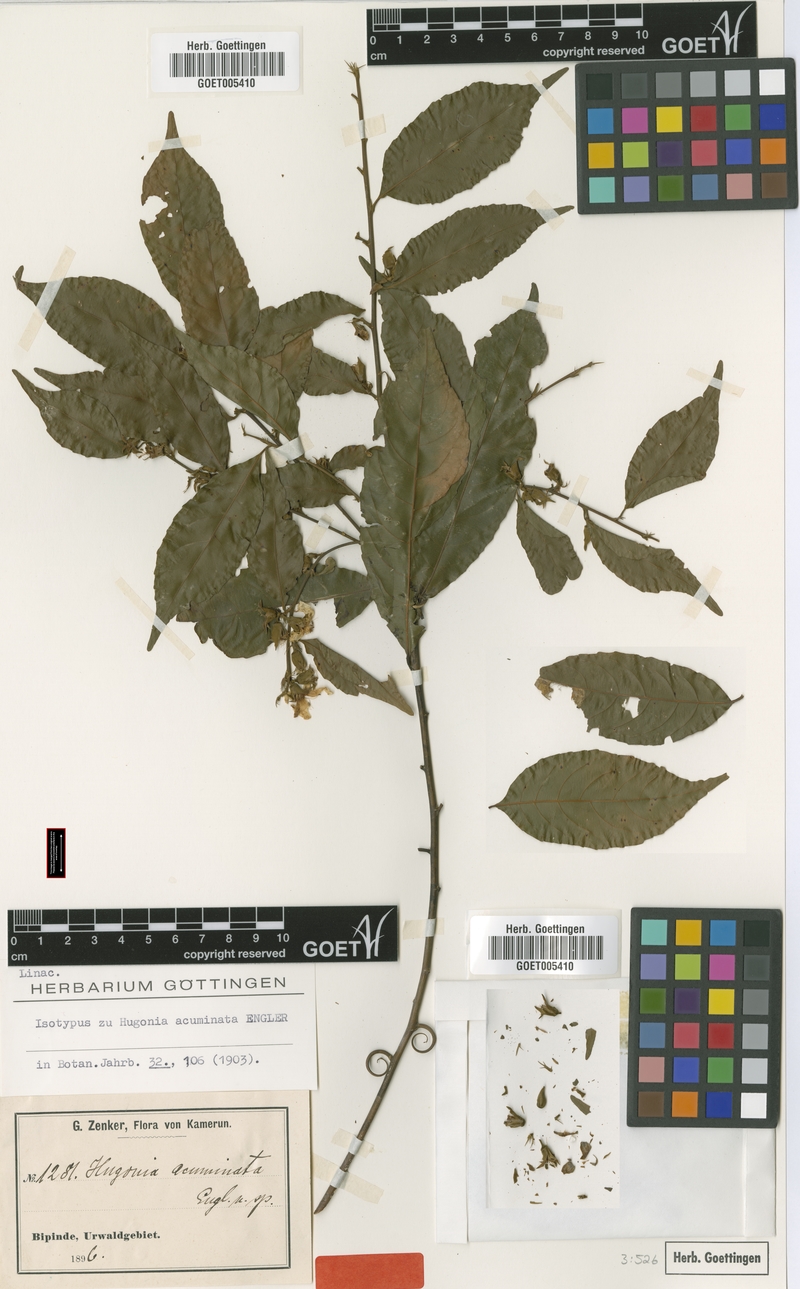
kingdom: Plantae
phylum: Tracheophyta
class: Magnoliopsida
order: Malpighiales
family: Linaceae
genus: Hugonia
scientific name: Hugonia planchonii
